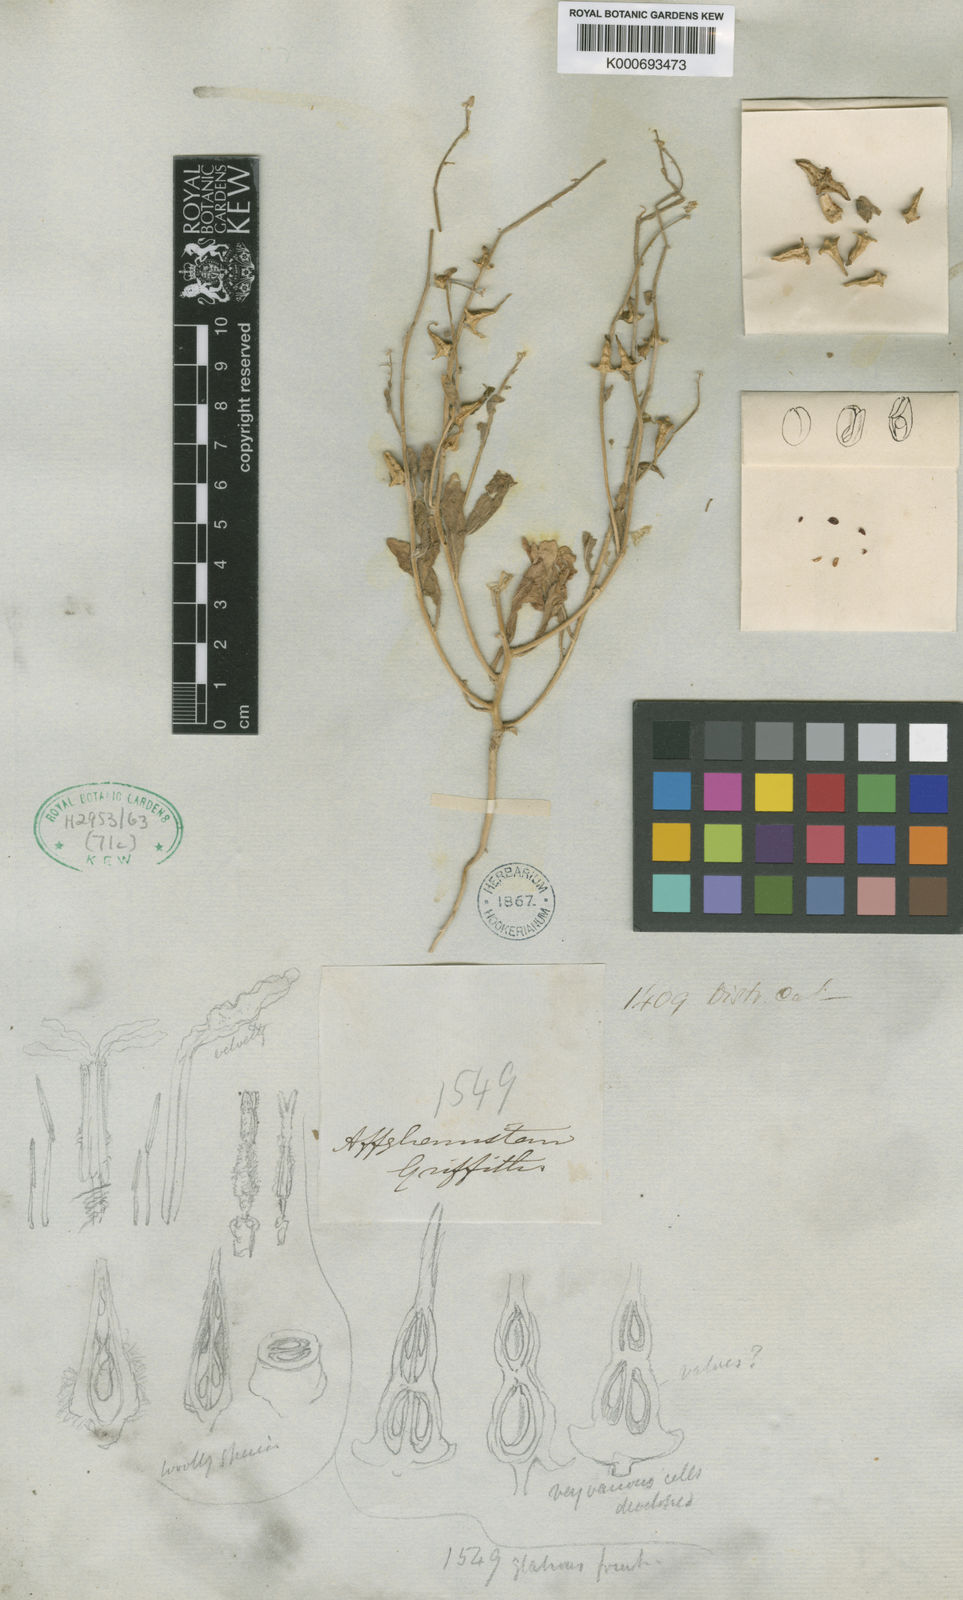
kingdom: Plantae
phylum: Tracheophyta
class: Magnoliopsida
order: Brassicales
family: Brassicaceae
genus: Veselskya
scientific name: Veselskya
